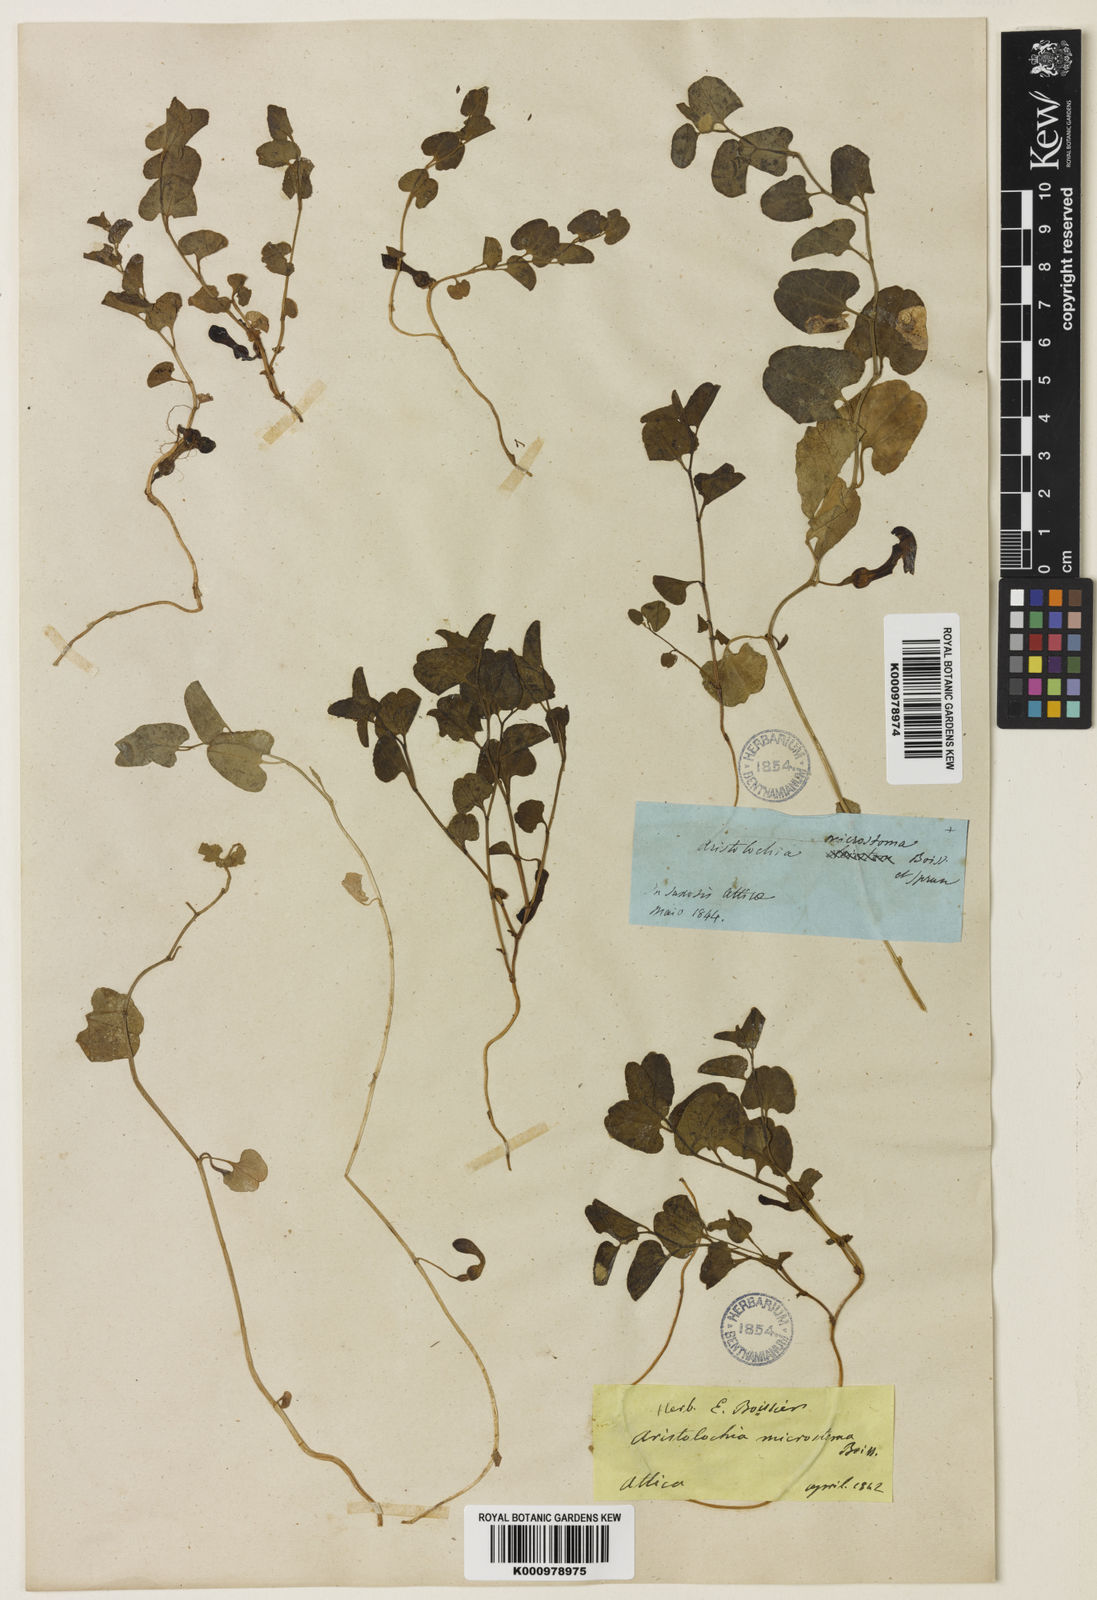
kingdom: Plantae
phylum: Tracheophyta
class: Magnoliopsida
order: Piperales
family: Aristolochiaceae
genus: Aristolochia
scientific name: Aristolochia microstoma
